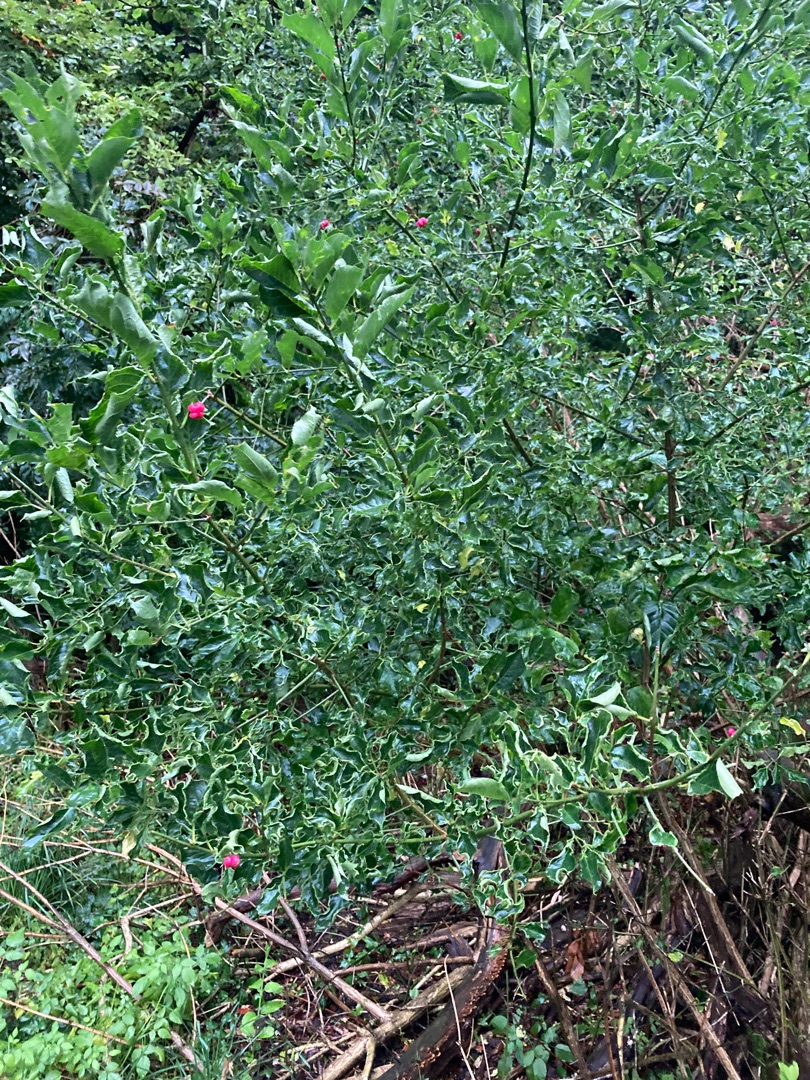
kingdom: Plantae
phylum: Tracheophyta
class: Magnoliopsida
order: Celastrales
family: Celastraceae
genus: Euonymus
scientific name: Euonymus europaeus
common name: Benved
